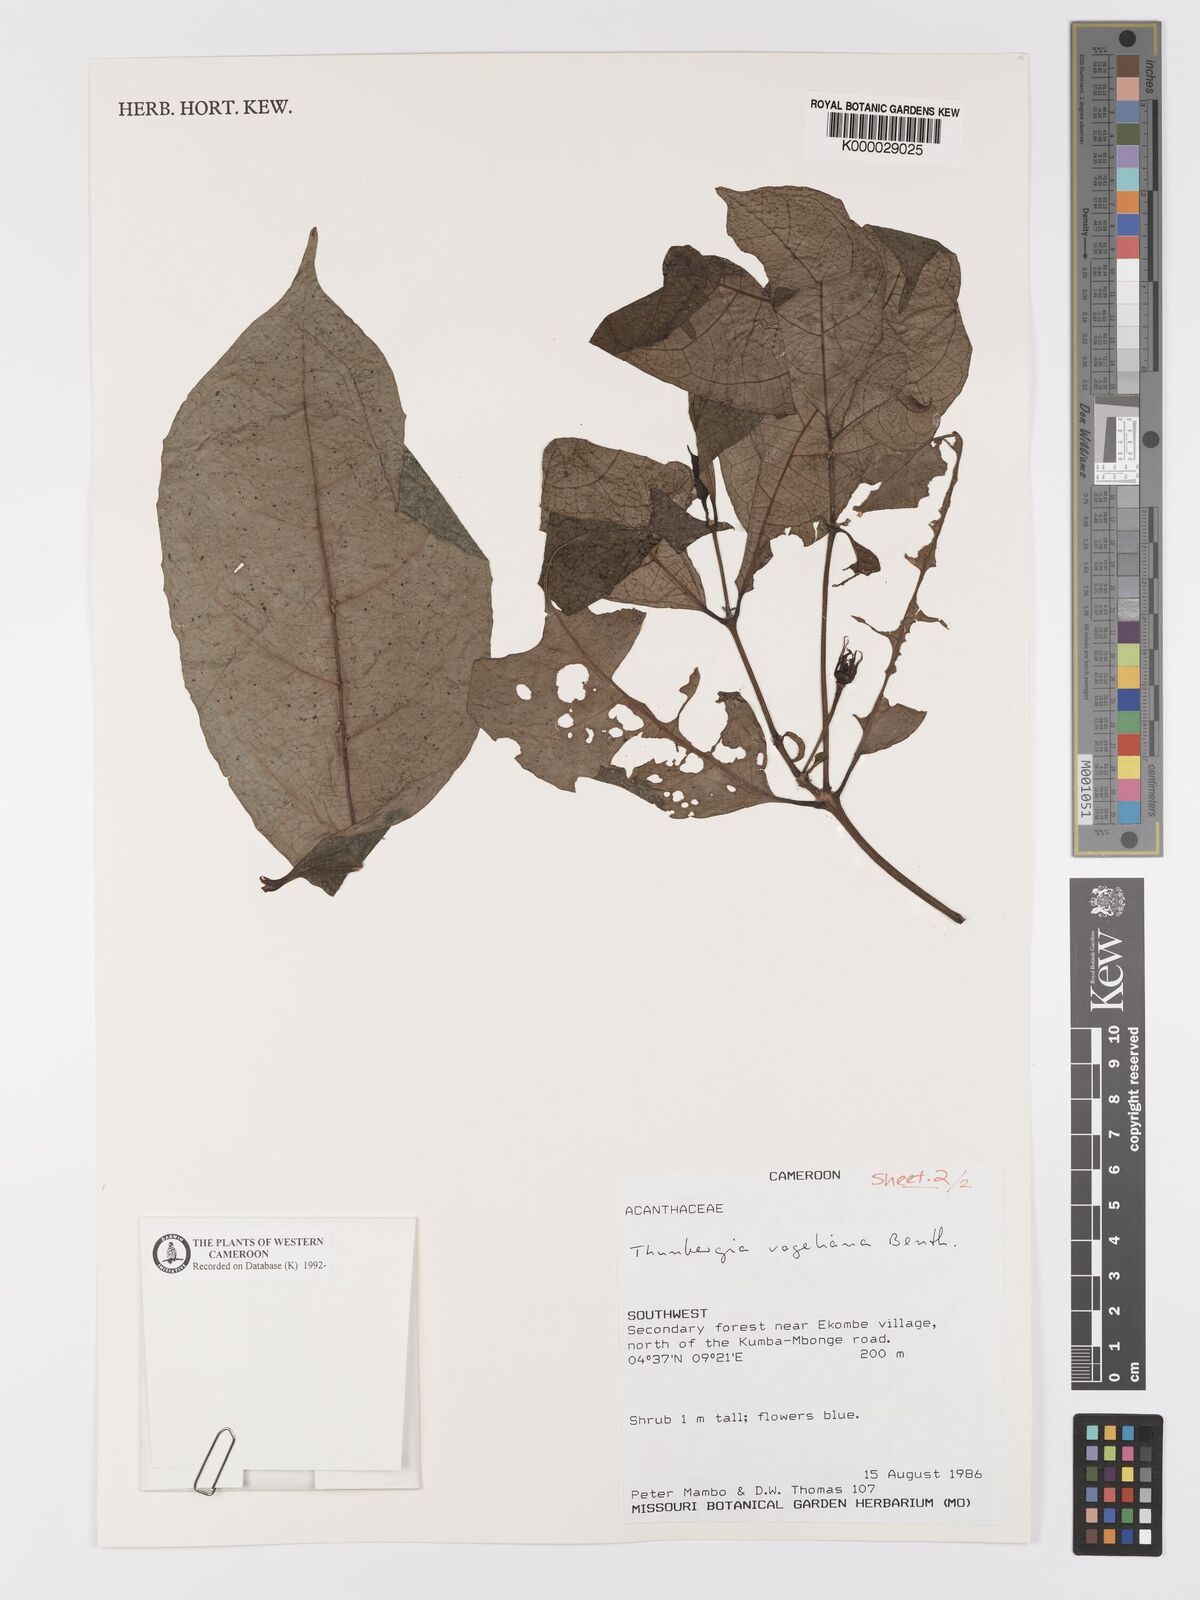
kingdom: Plantae
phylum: Tracheophyta
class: Magnoliopsida
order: Lamiales
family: Acanthaceae
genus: Thunbergia
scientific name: Thunbergia vogeliana
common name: Acanthaceae
